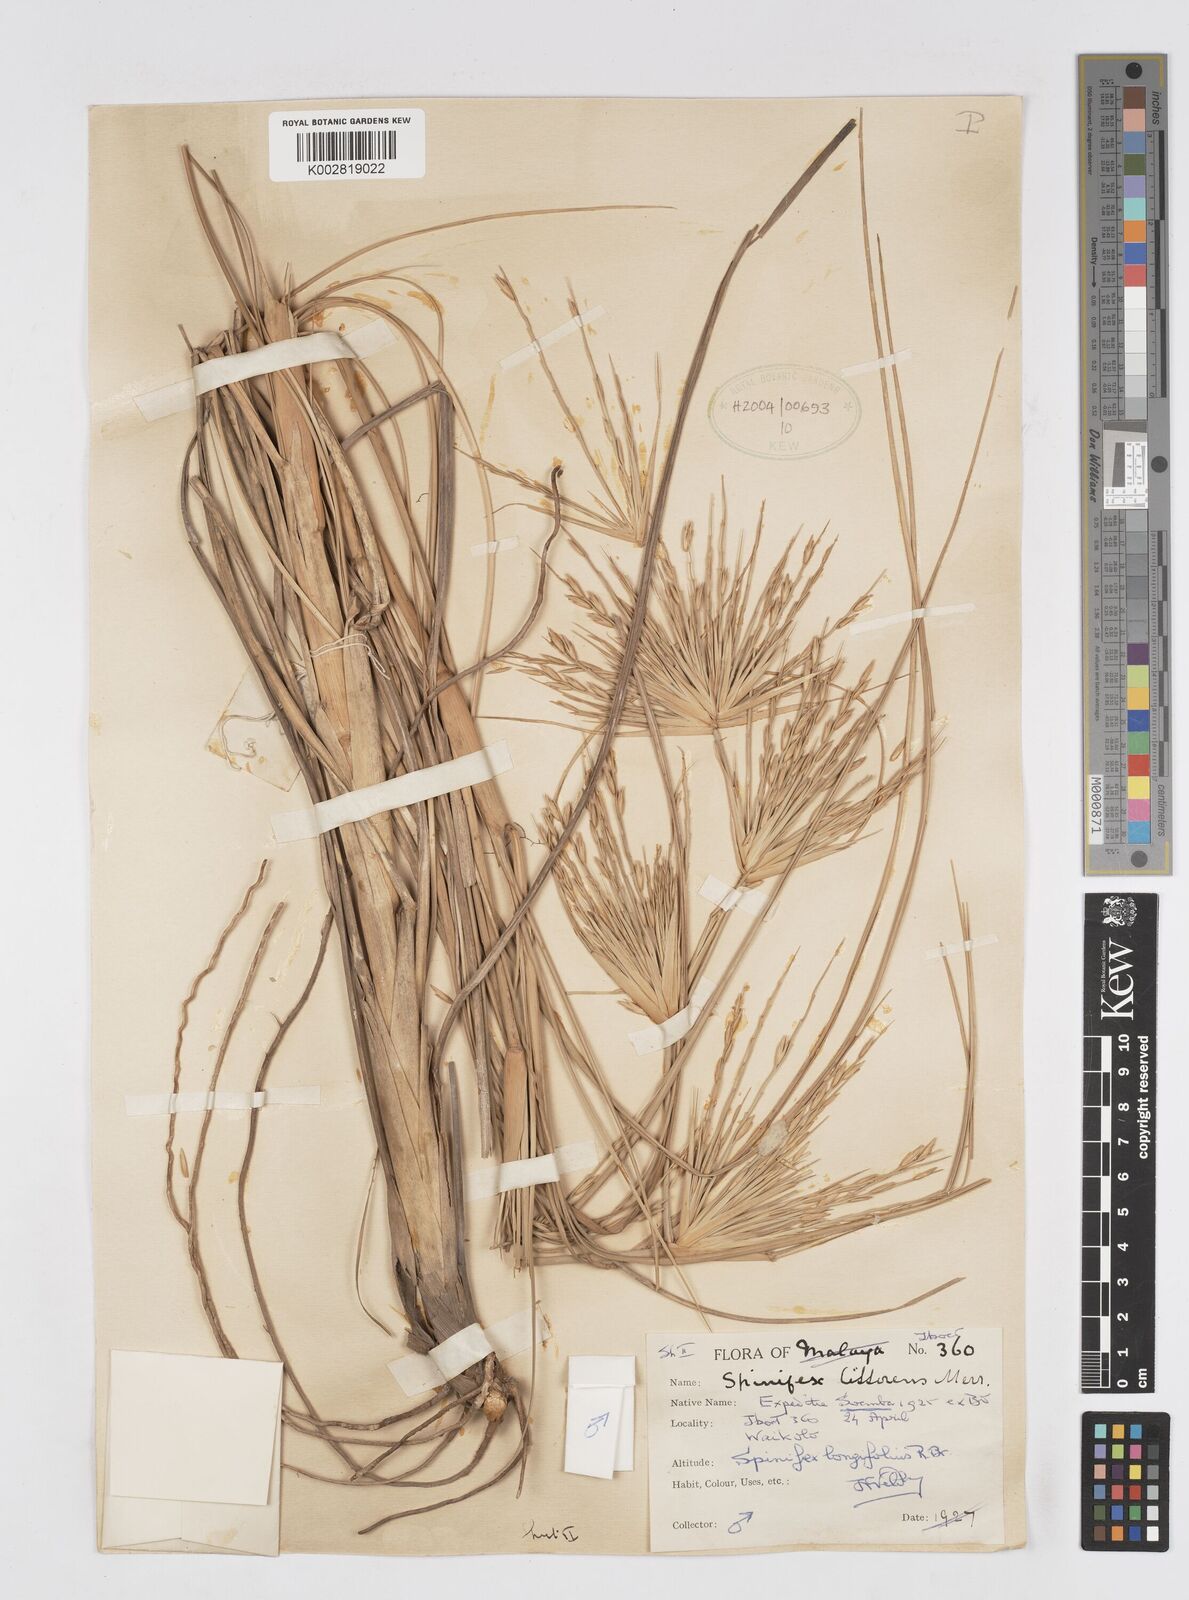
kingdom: Plantae
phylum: Tracheophyta
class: Liliopsida
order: Poales
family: Poaceae
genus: Spinifex
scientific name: Spinifex littoreus
